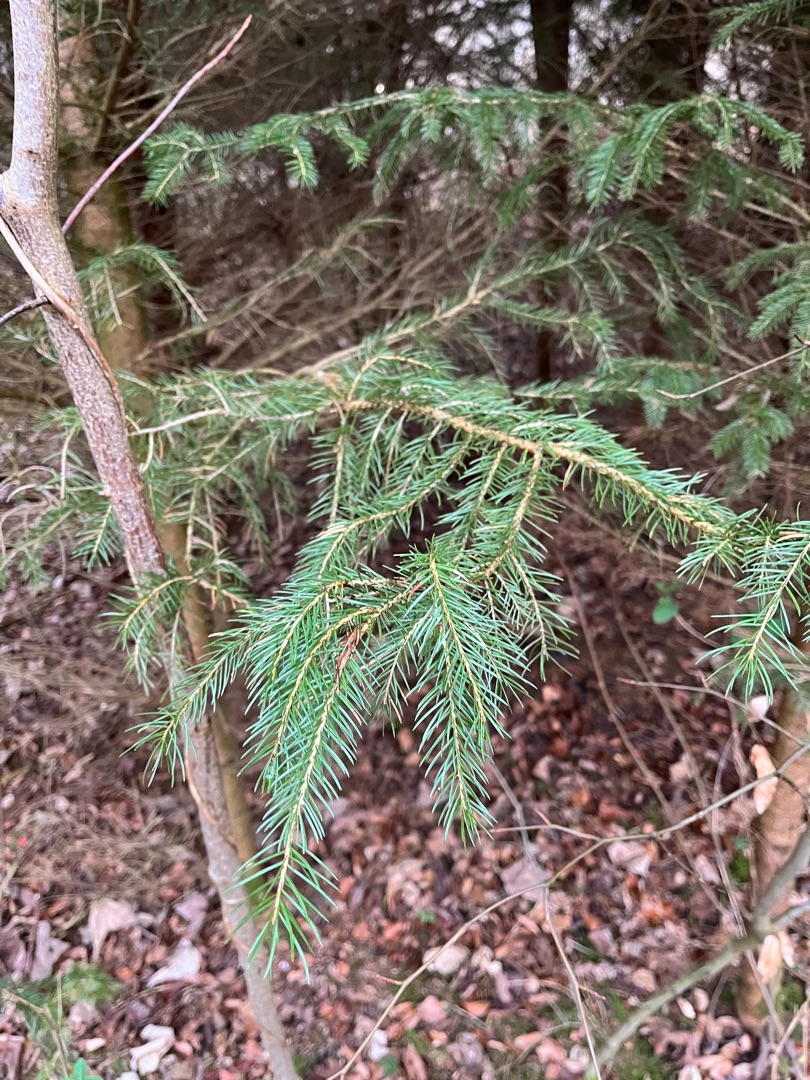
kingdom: Plantae
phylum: Tracheophyta
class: Pinopsida
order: Pinales
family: Pinaceae
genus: Picea
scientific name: Picea abies
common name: Rød-gran
